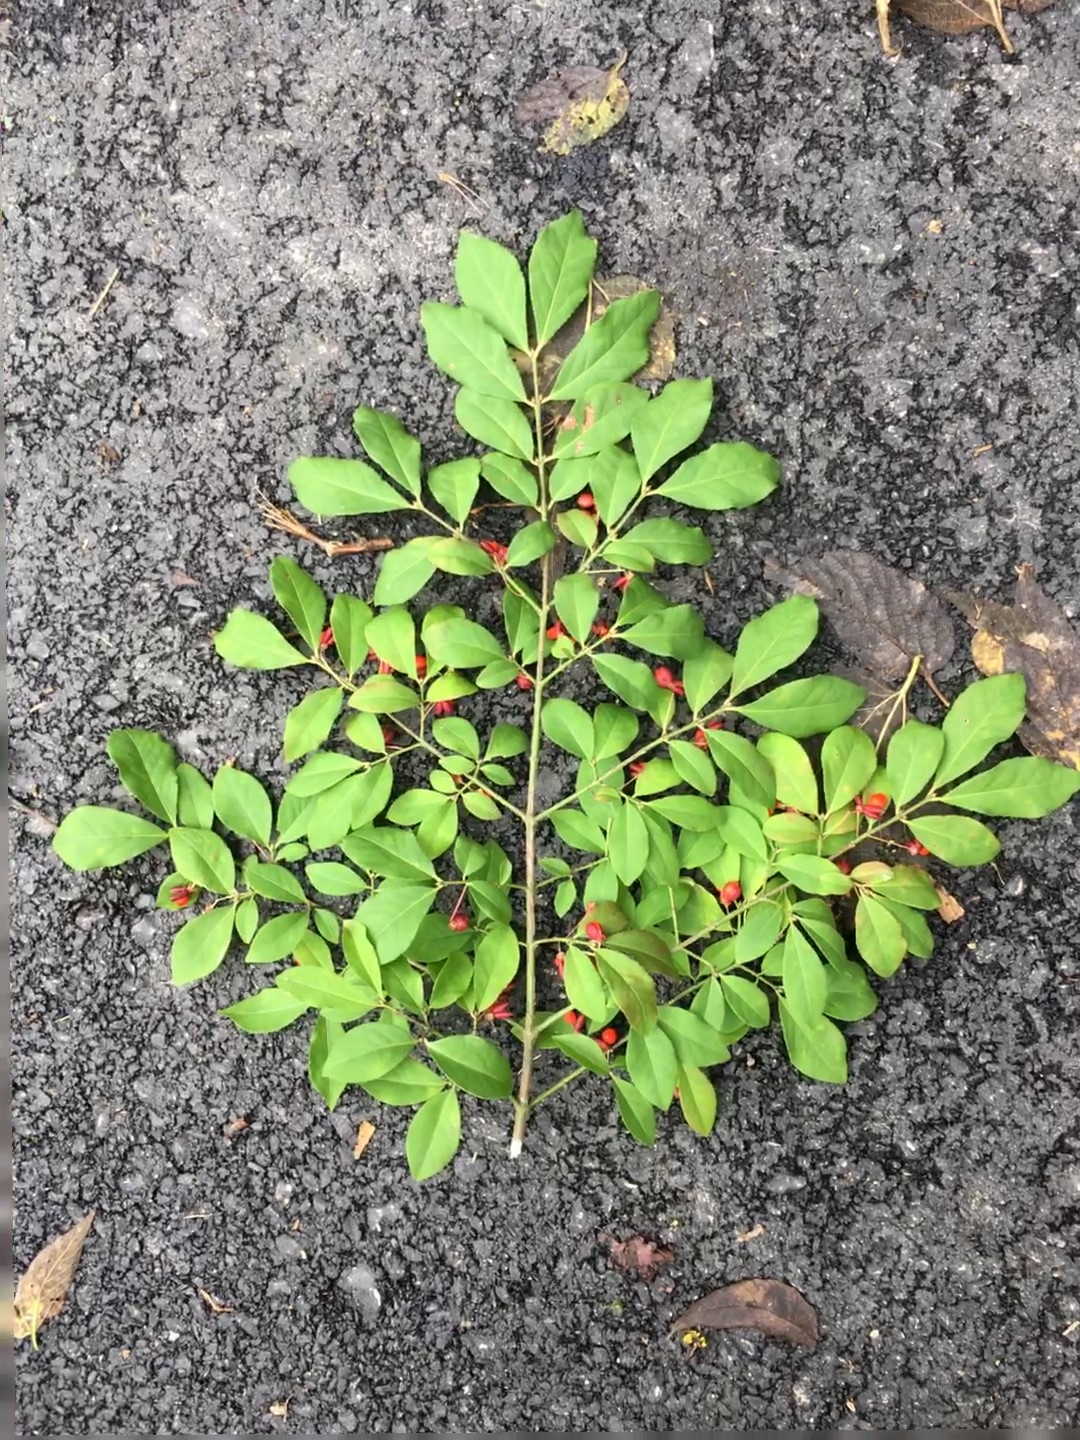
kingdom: Plantae
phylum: Tracheophyta
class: Magnoliopsida
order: Celastrales
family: Celastraceae
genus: Euonymus
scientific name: Euonymus alatus
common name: Burning Bush
